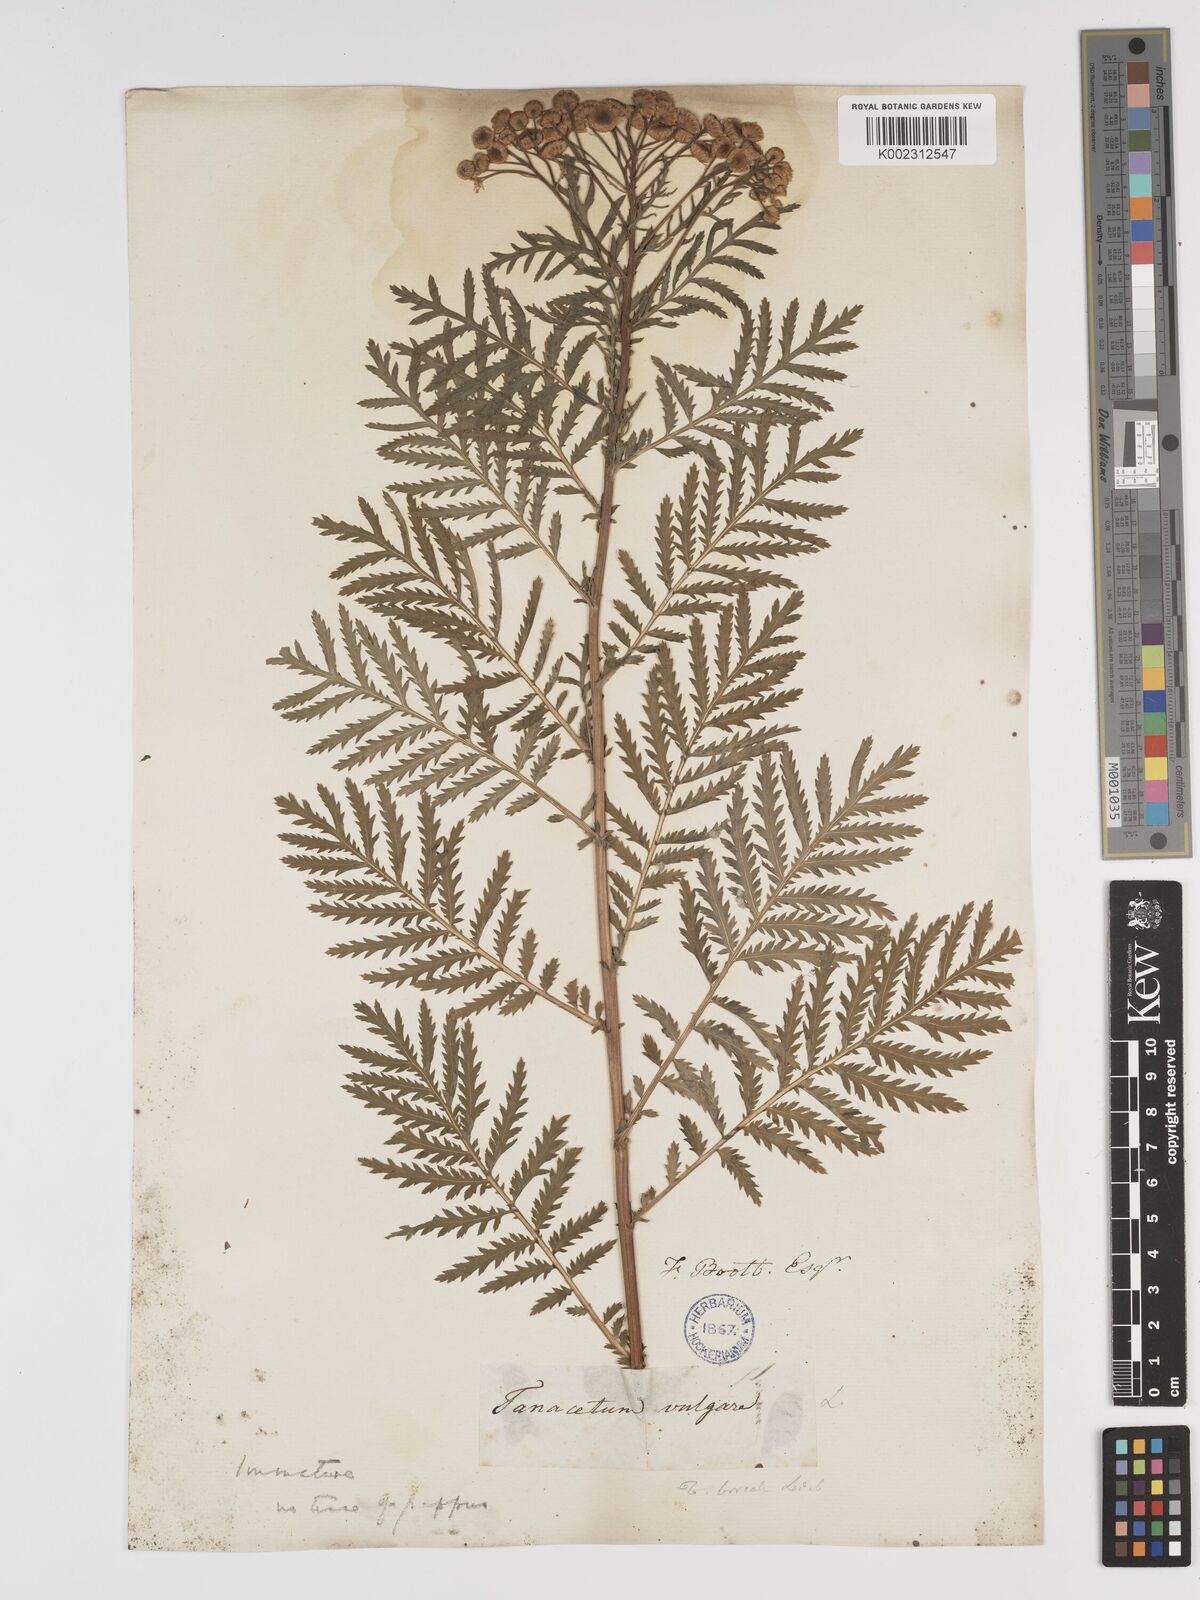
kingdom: Plantae
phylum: Tracheophyta
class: Magnoliopsida
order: Asterales
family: Asteraceae
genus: Tanacetum
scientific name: Tanacetum vulgare
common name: Common tansy
